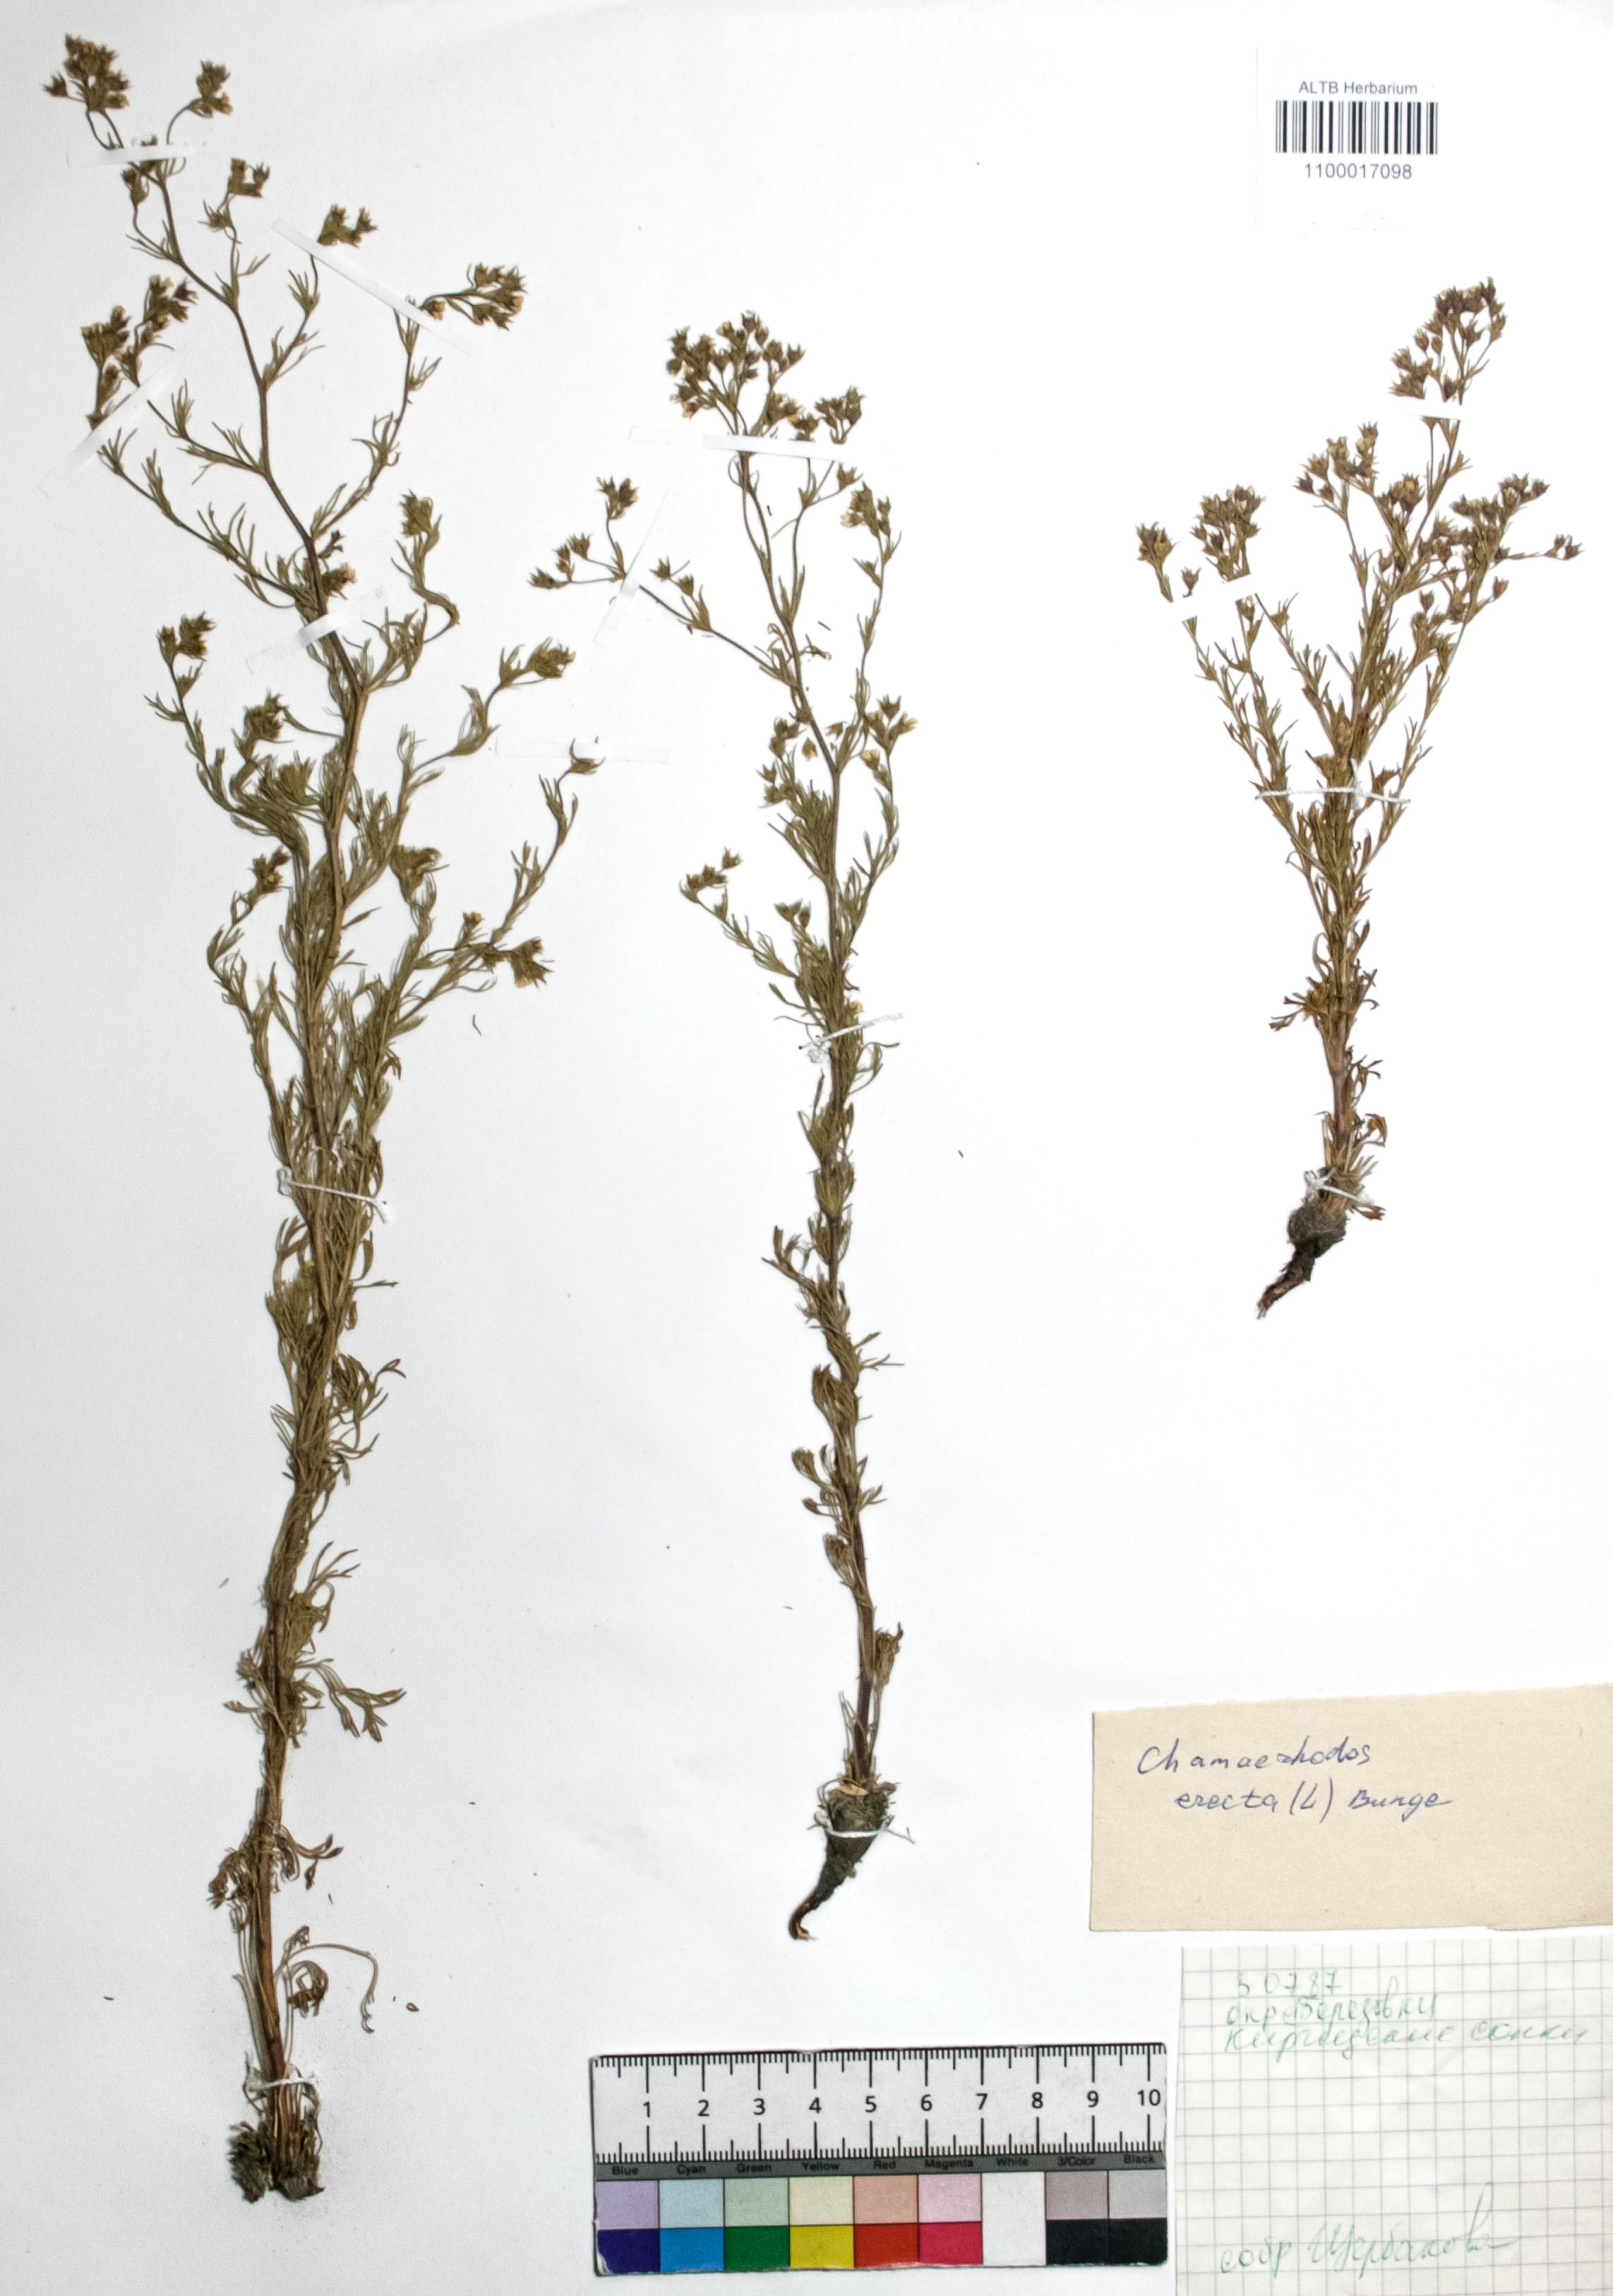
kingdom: Plantae
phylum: Tracheophyta
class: Magnoliopsida
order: Rosales
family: Rosaceae
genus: Chamaerhodos
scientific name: Chamaerhodos erecta
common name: American chamaerhodos
